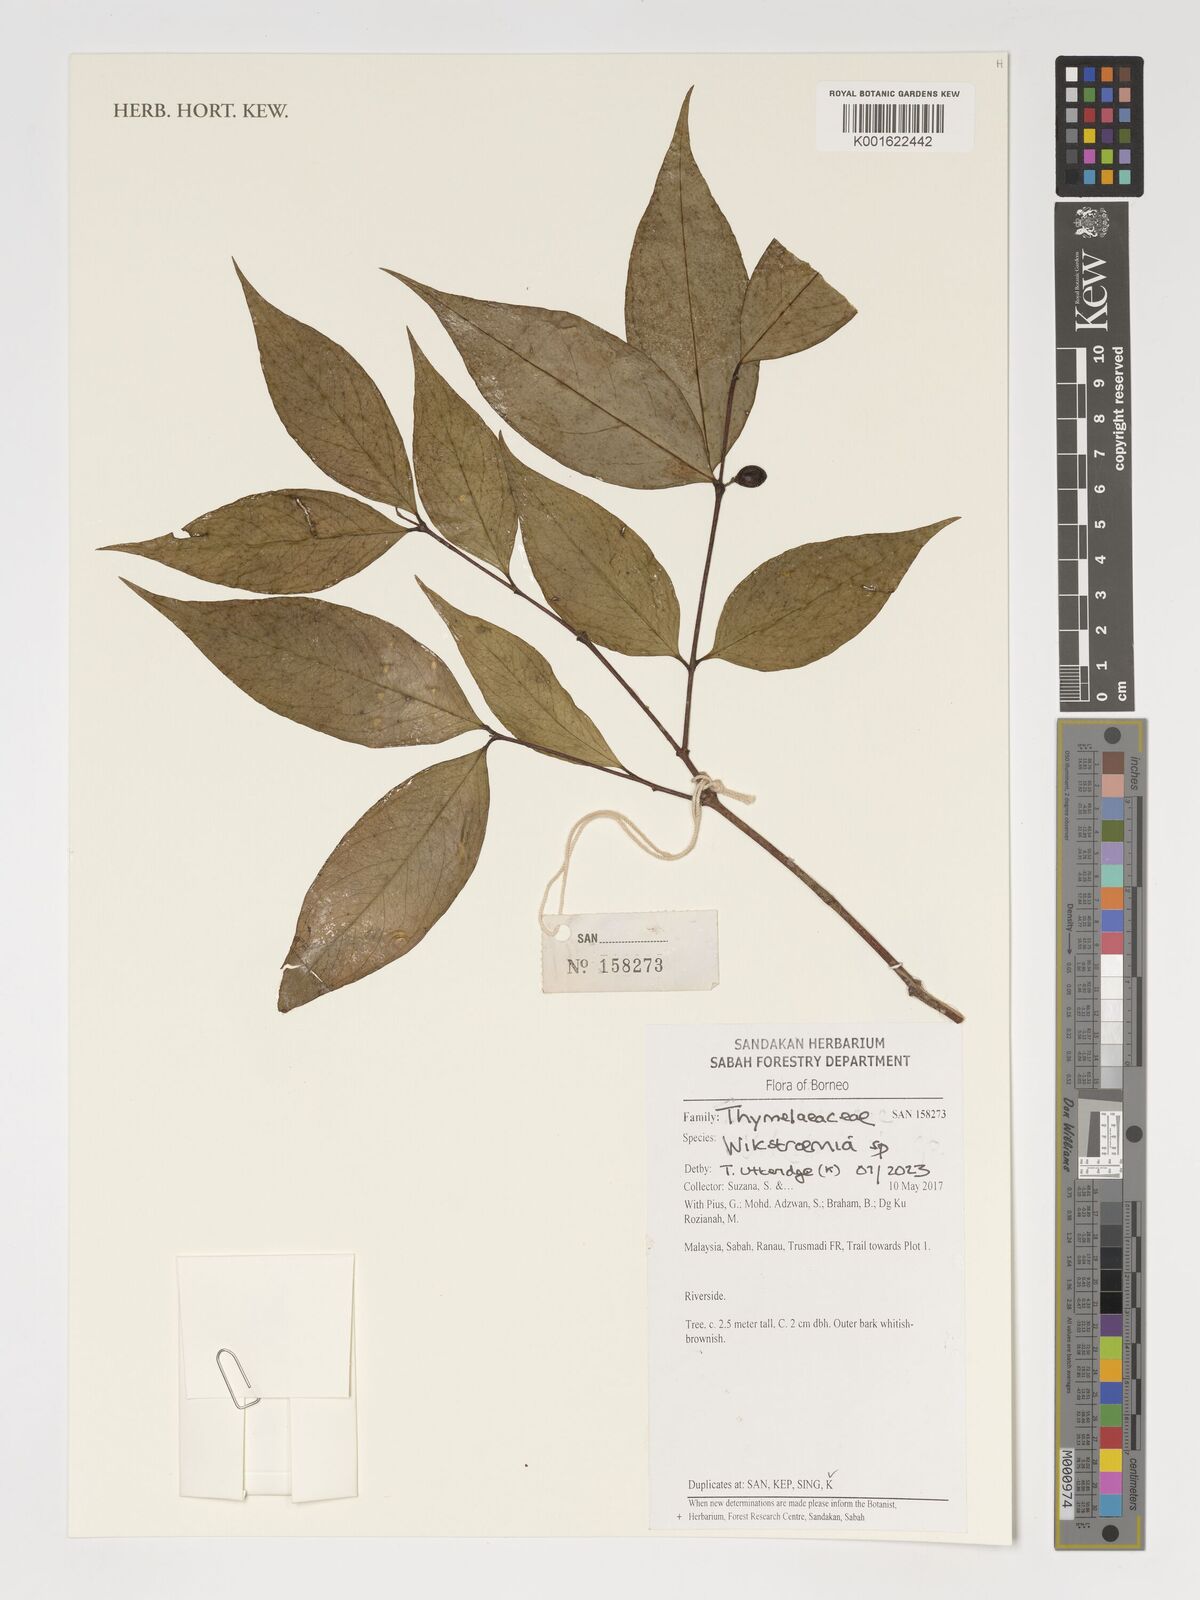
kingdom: Plantae
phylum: Tracheophyta
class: Magnoliopsida
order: Malvales
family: Thymelaeaceae
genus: Wikstroemia
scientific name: Wikstroemia
